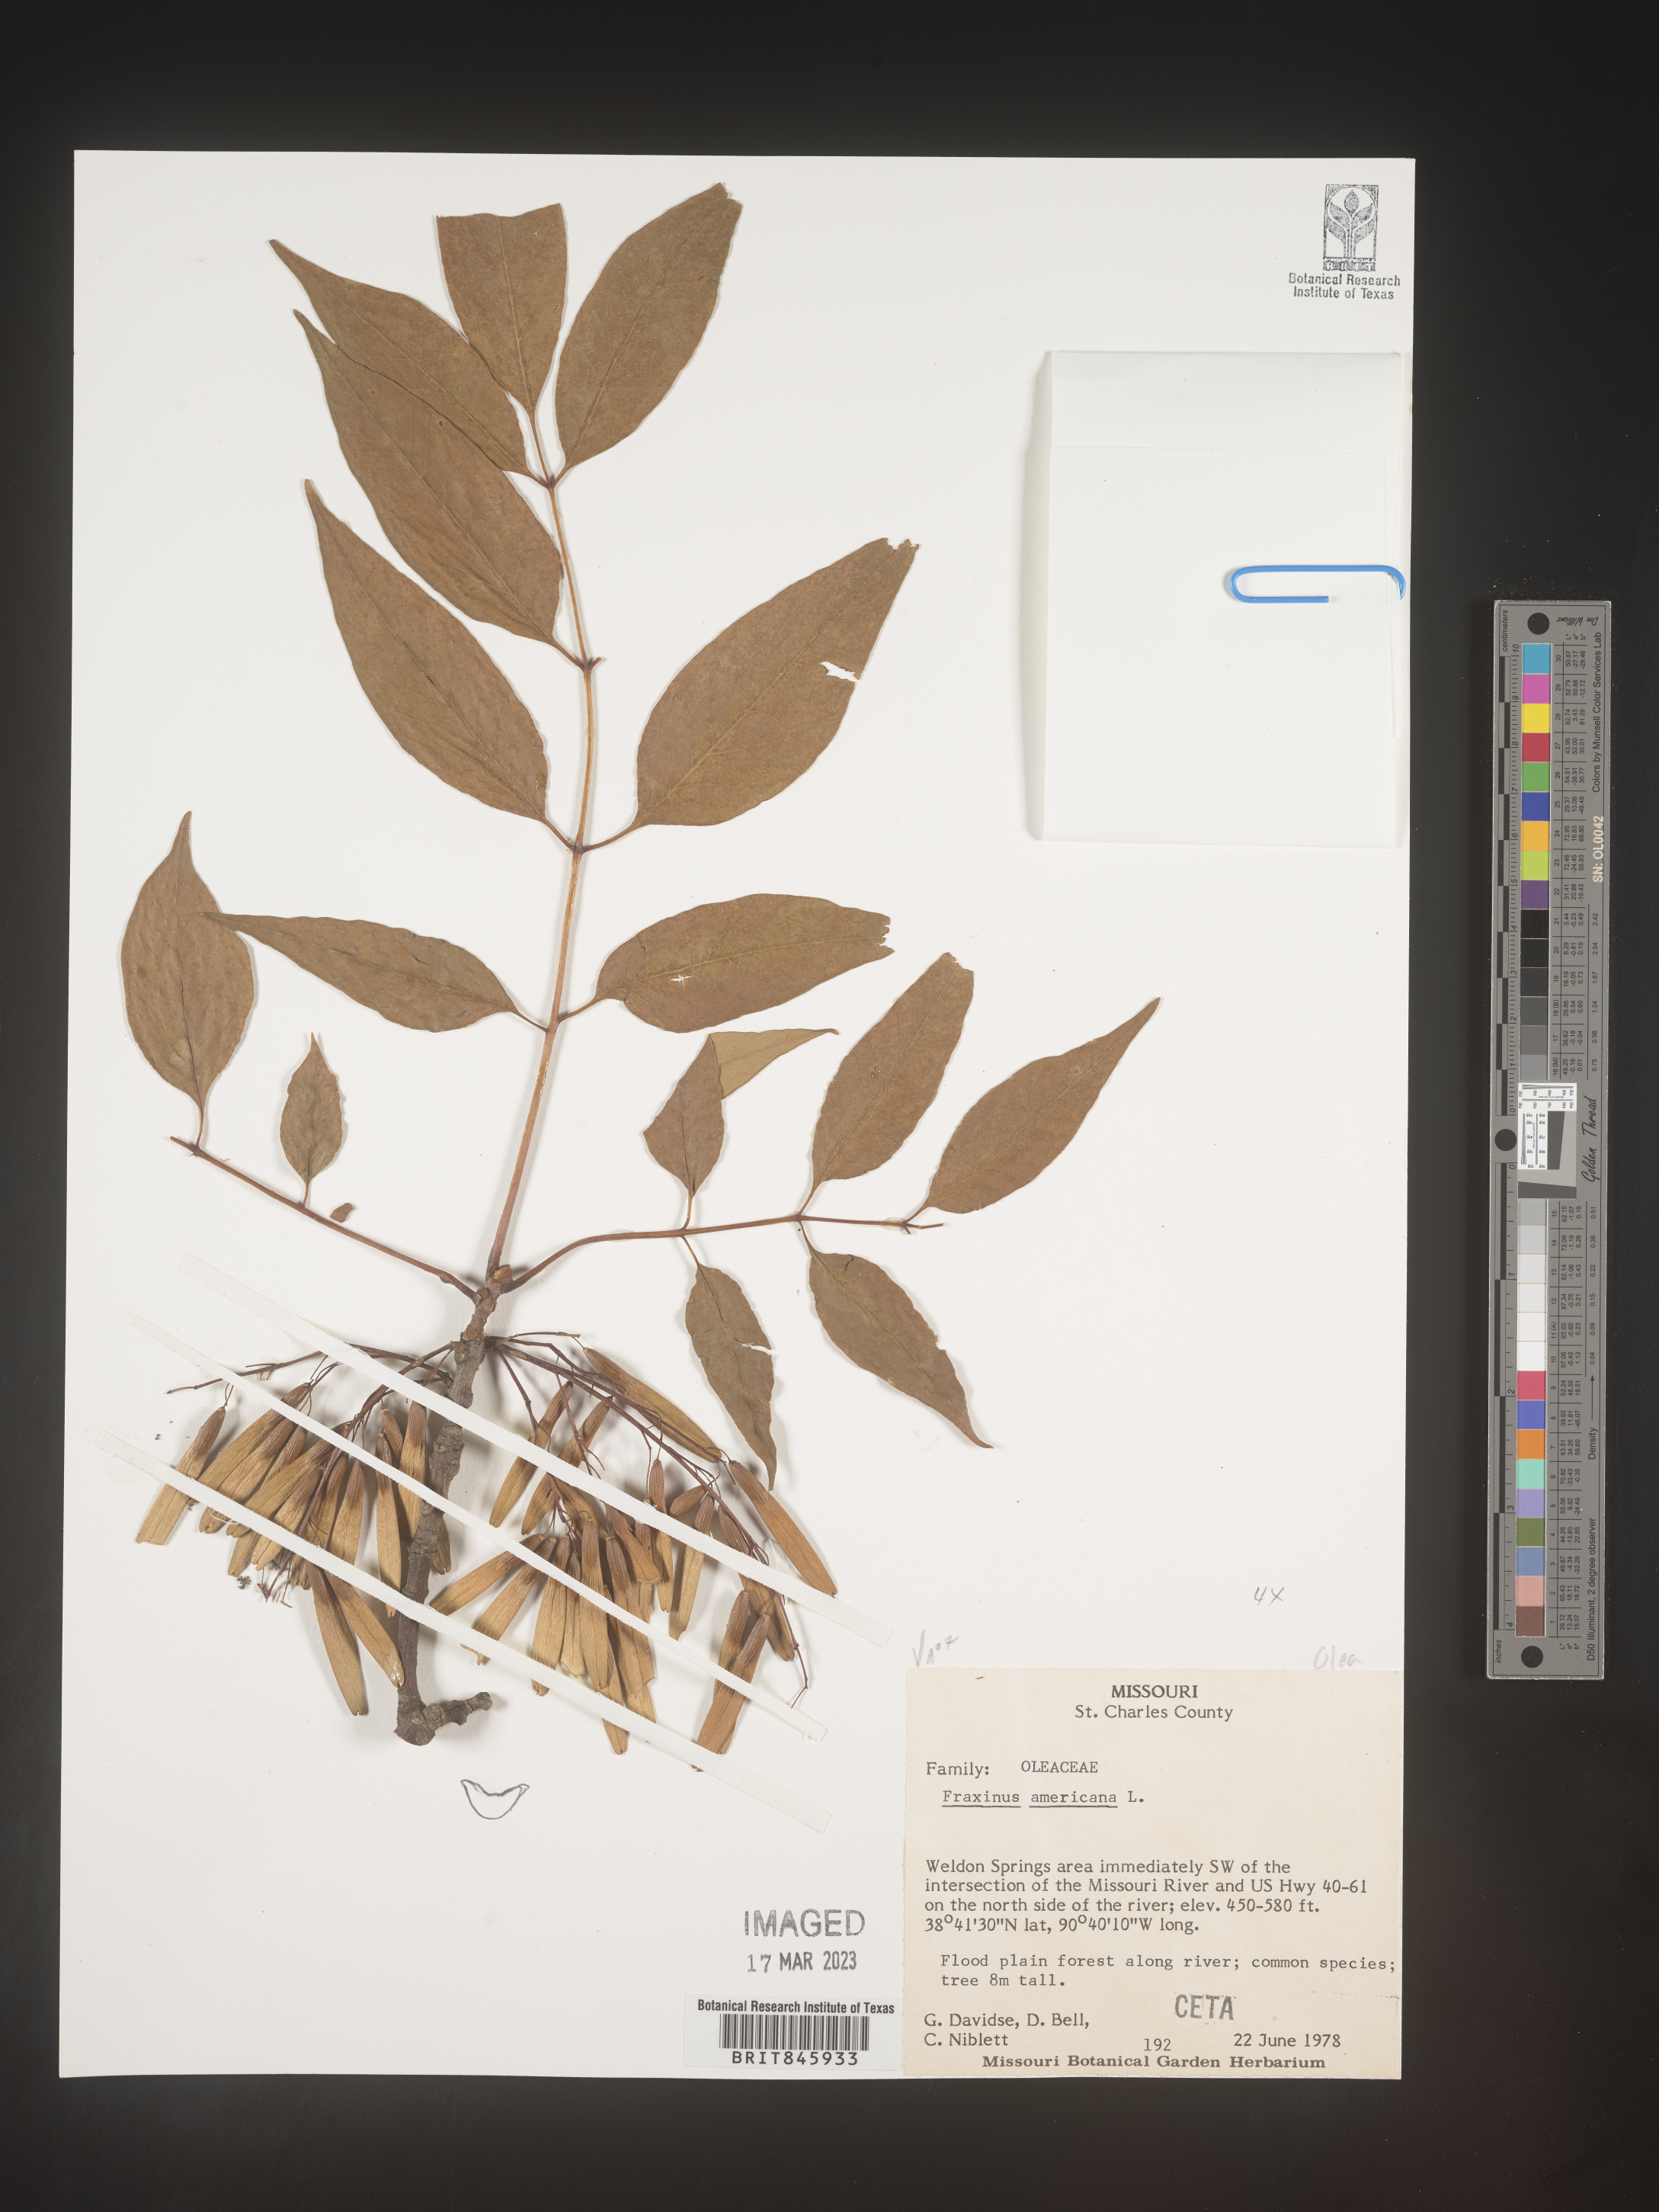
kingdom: Plantae
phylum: Tracheophyta
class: Magnoliopsida
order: Lamiales
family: Oleaceae
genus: Fraxinus
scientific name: Fraxinus americana
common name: White ash
